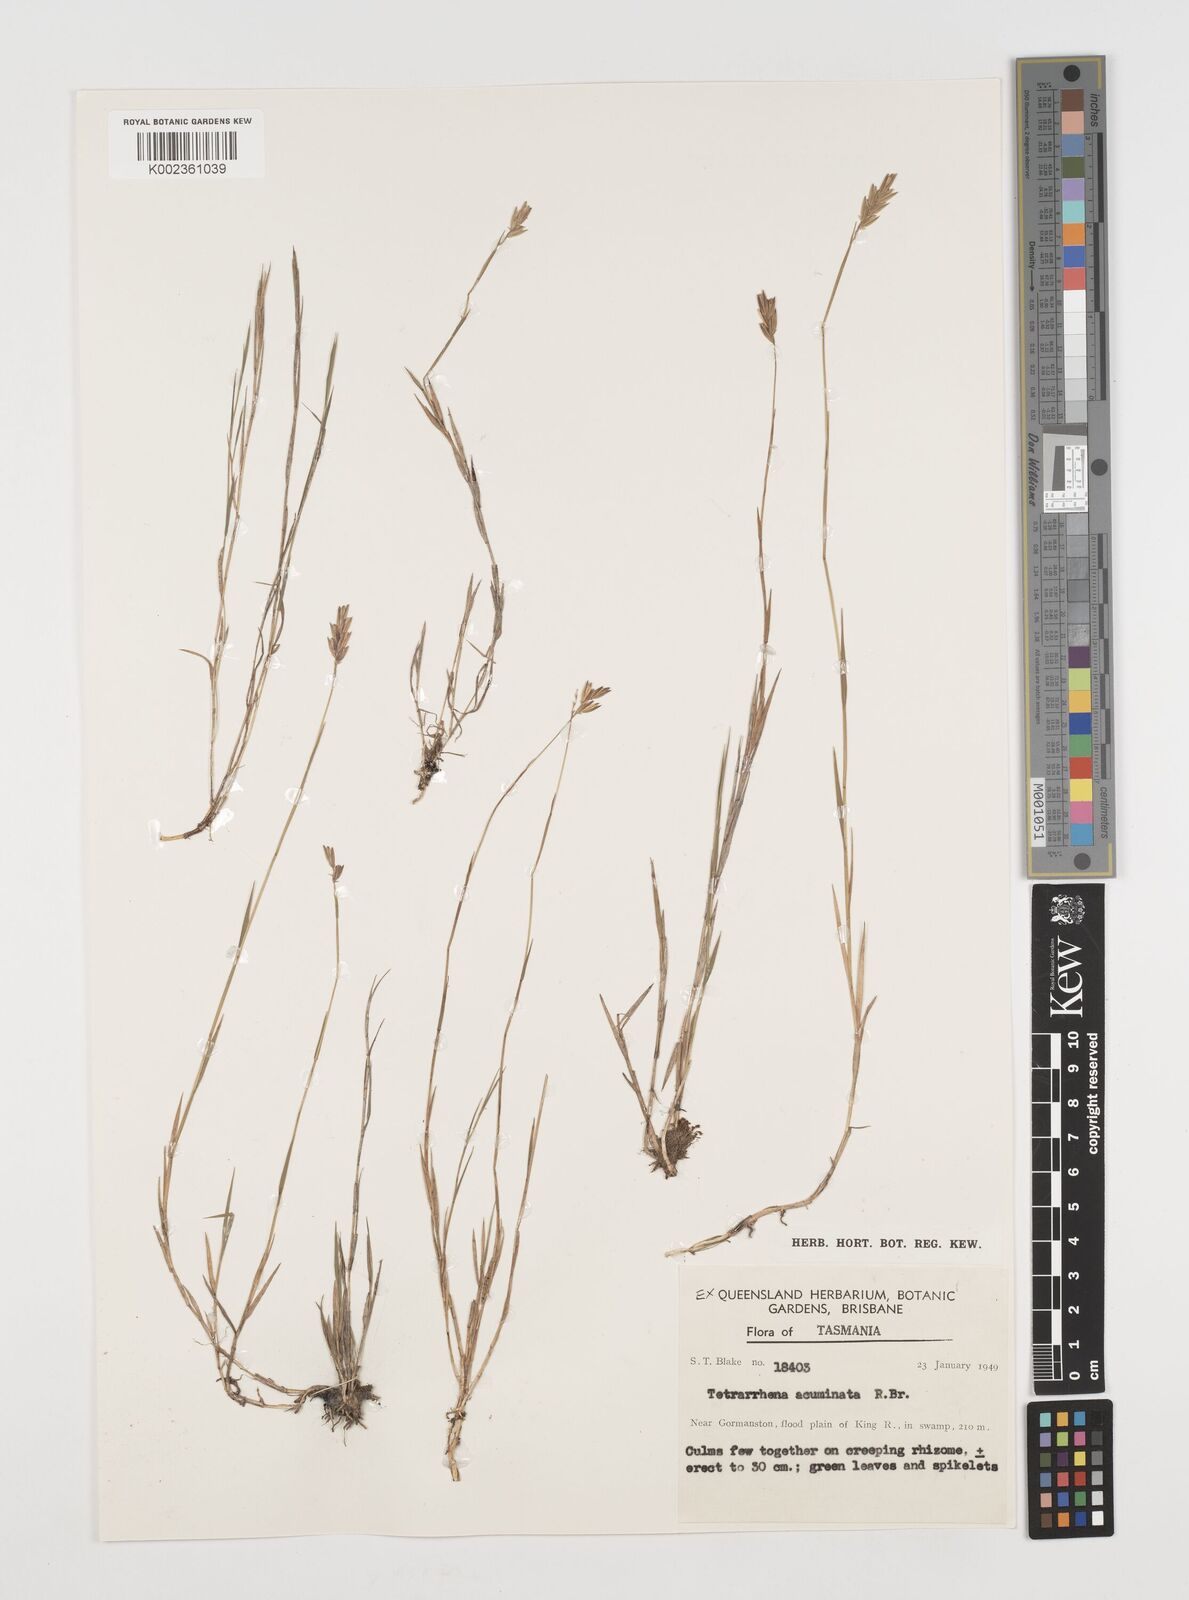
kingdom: Plantae
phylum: Tracheophyta
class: Liliopsida
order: Poales
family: Poaceae
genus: Tetrarrhena
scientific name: Tetrarrhena acuminata
